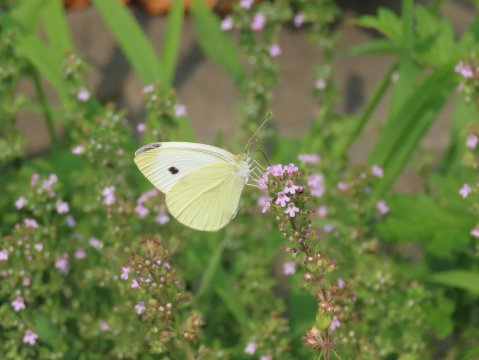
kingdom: Animalia
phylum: Arthropoda
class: Insecta
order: Lepidoptera
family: Pieridae
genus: Pieris
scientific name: Pieris rapae
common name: Cabbage White
